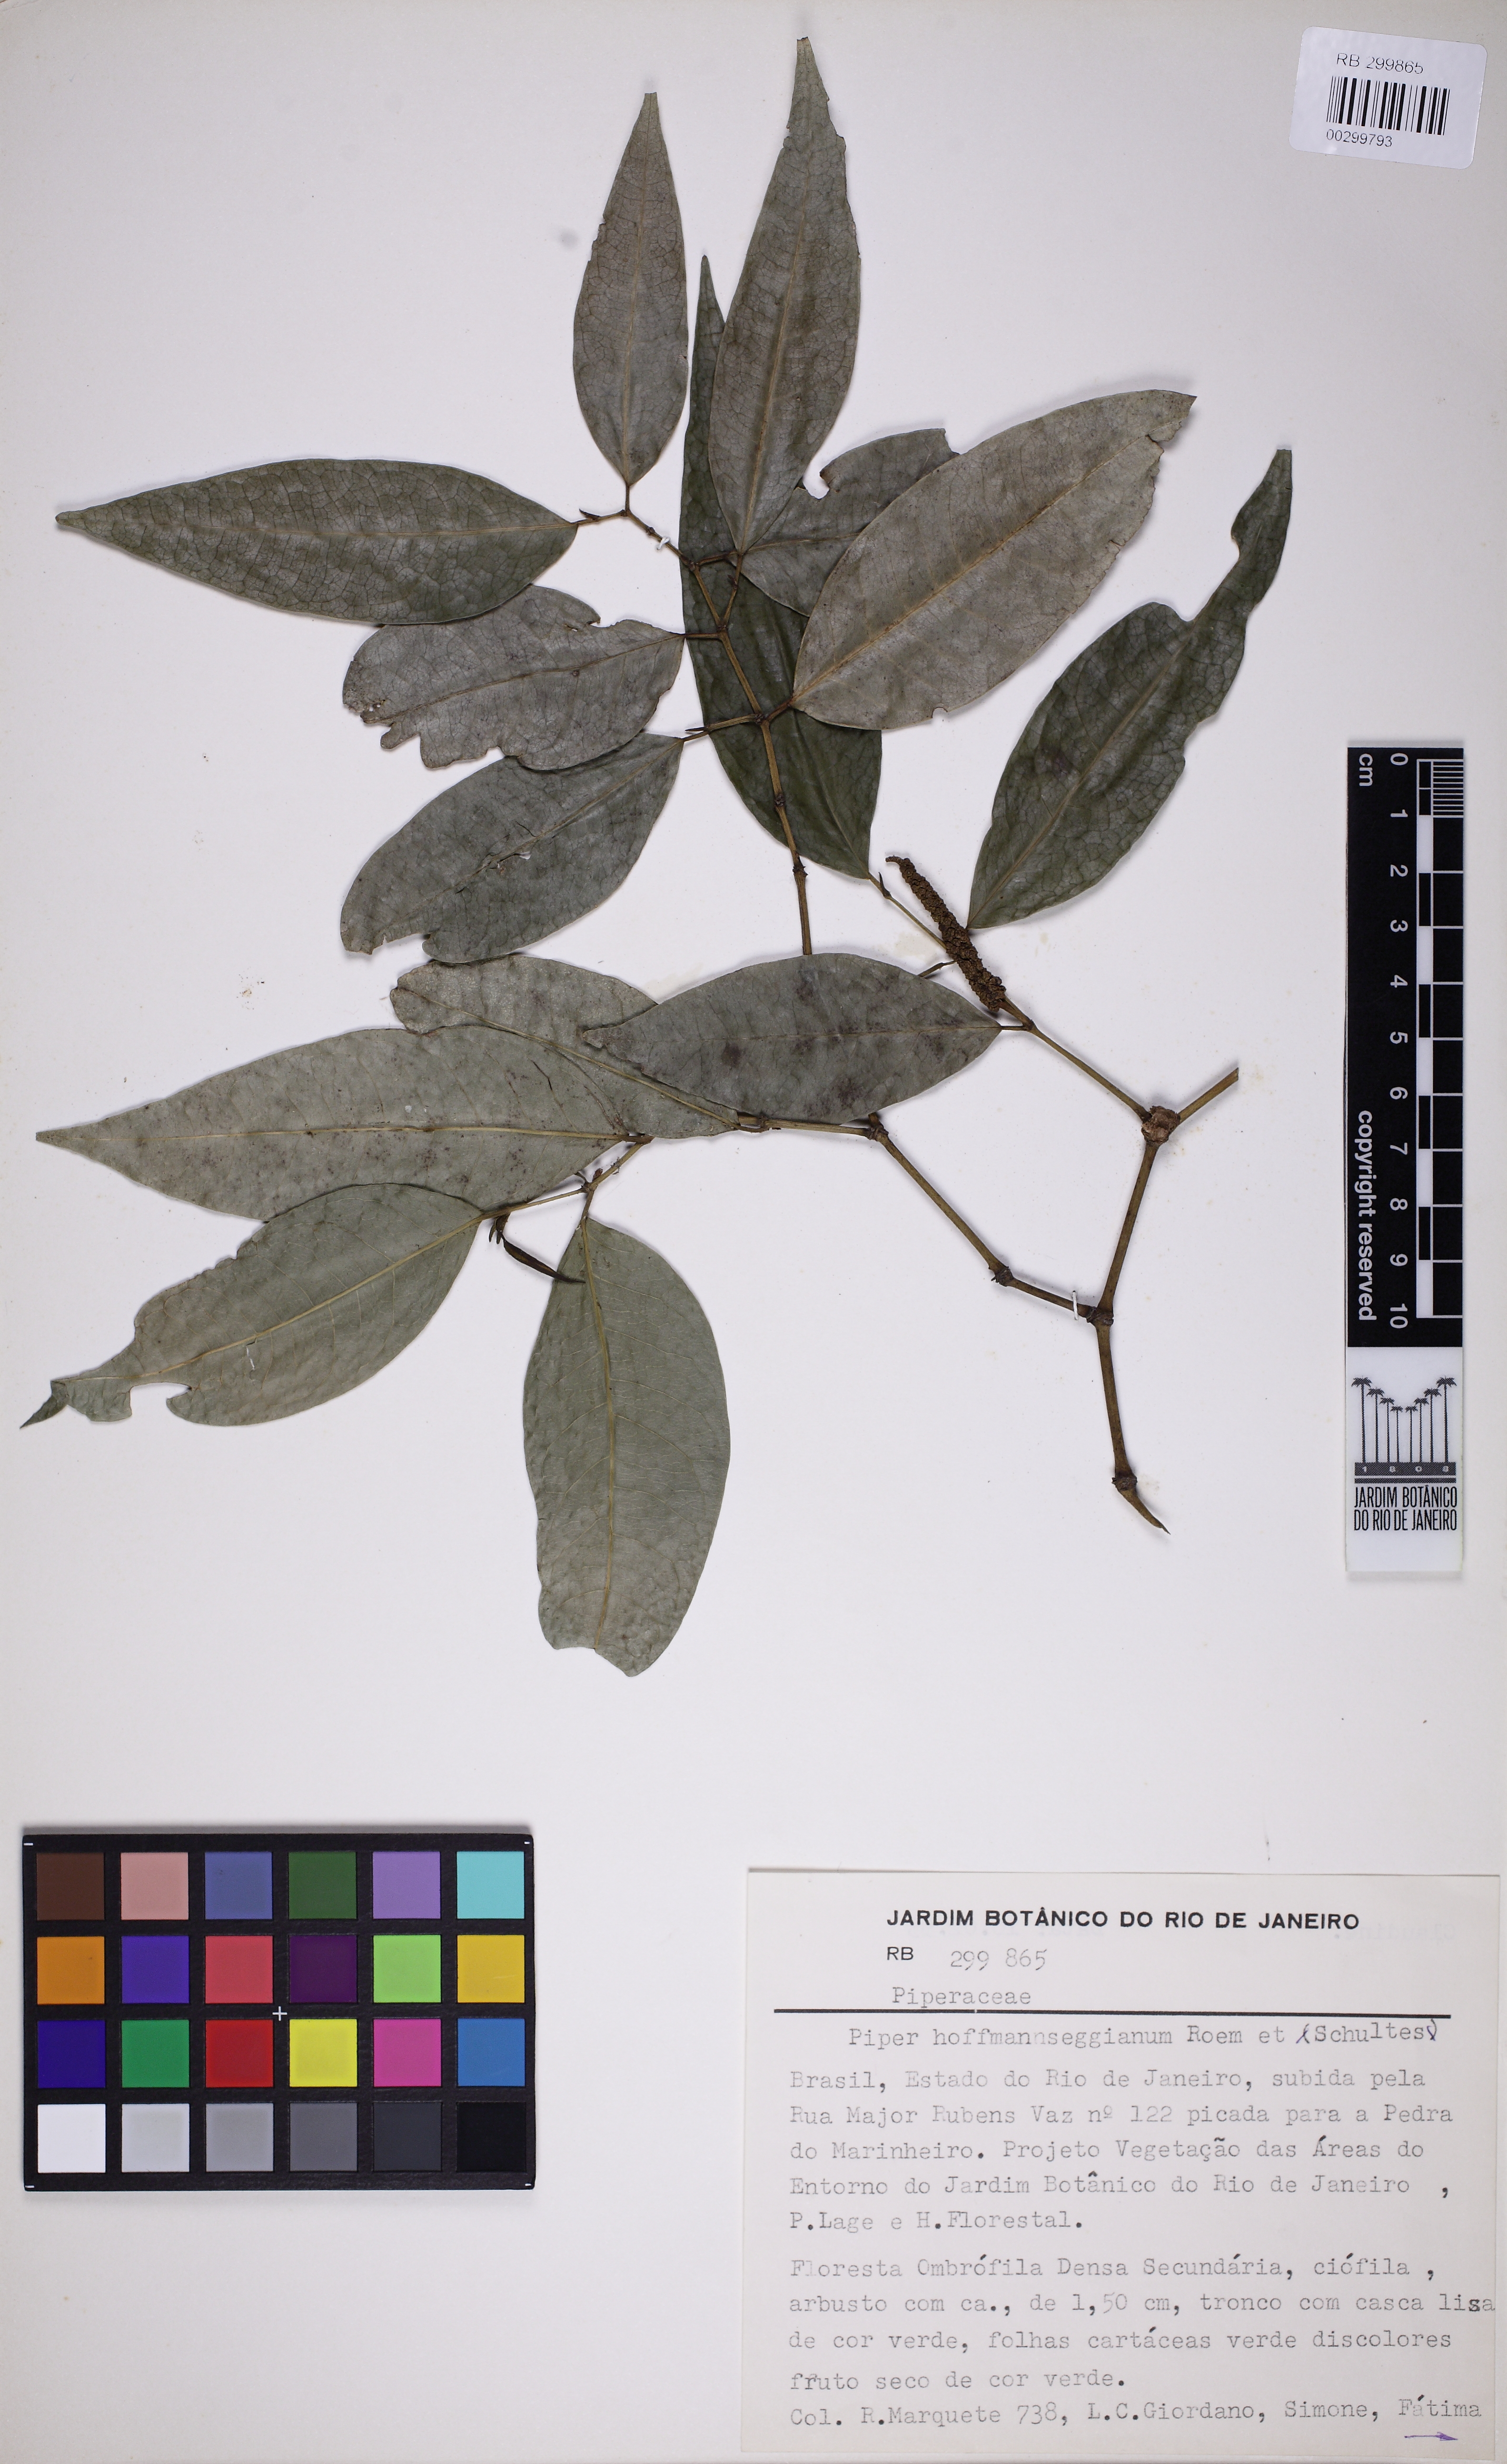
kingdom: Plantae
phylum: Tracheophyta
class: Magnoliopsida
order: Piperales
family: Piperaceae
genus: Piper
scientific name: Piper hoffmannseggianum
